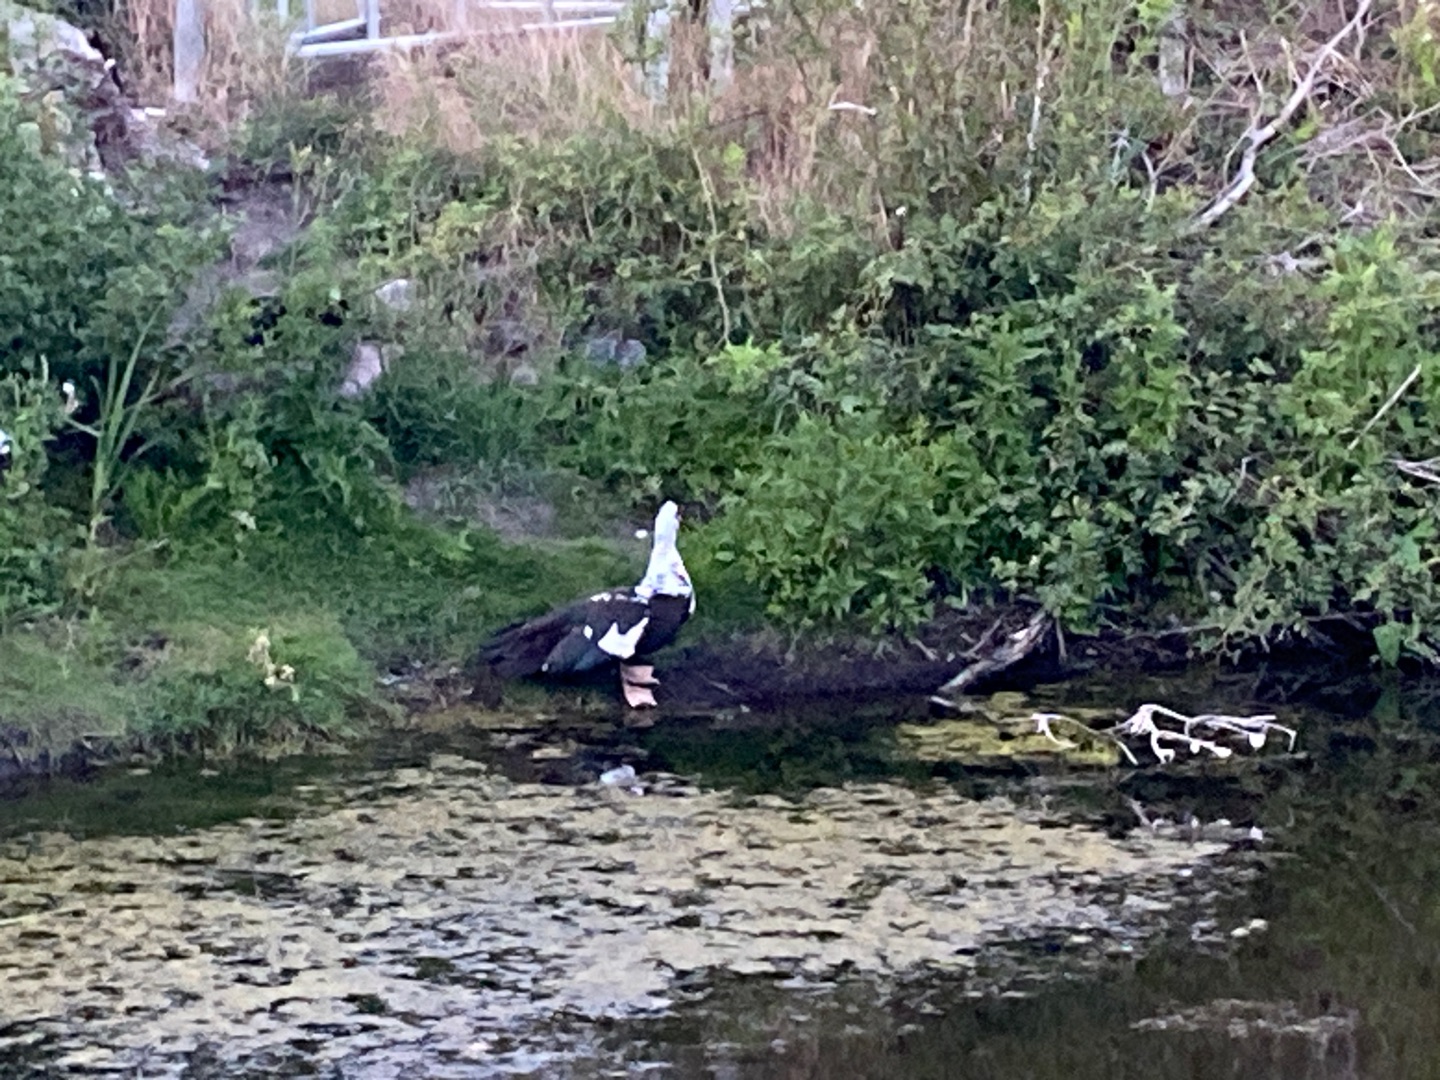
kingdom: Animalia
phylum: Chordata
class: Aves
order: Anseriformes
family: Anatidae
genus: Cairina
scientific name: Cairina moschata
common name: Moskusand
